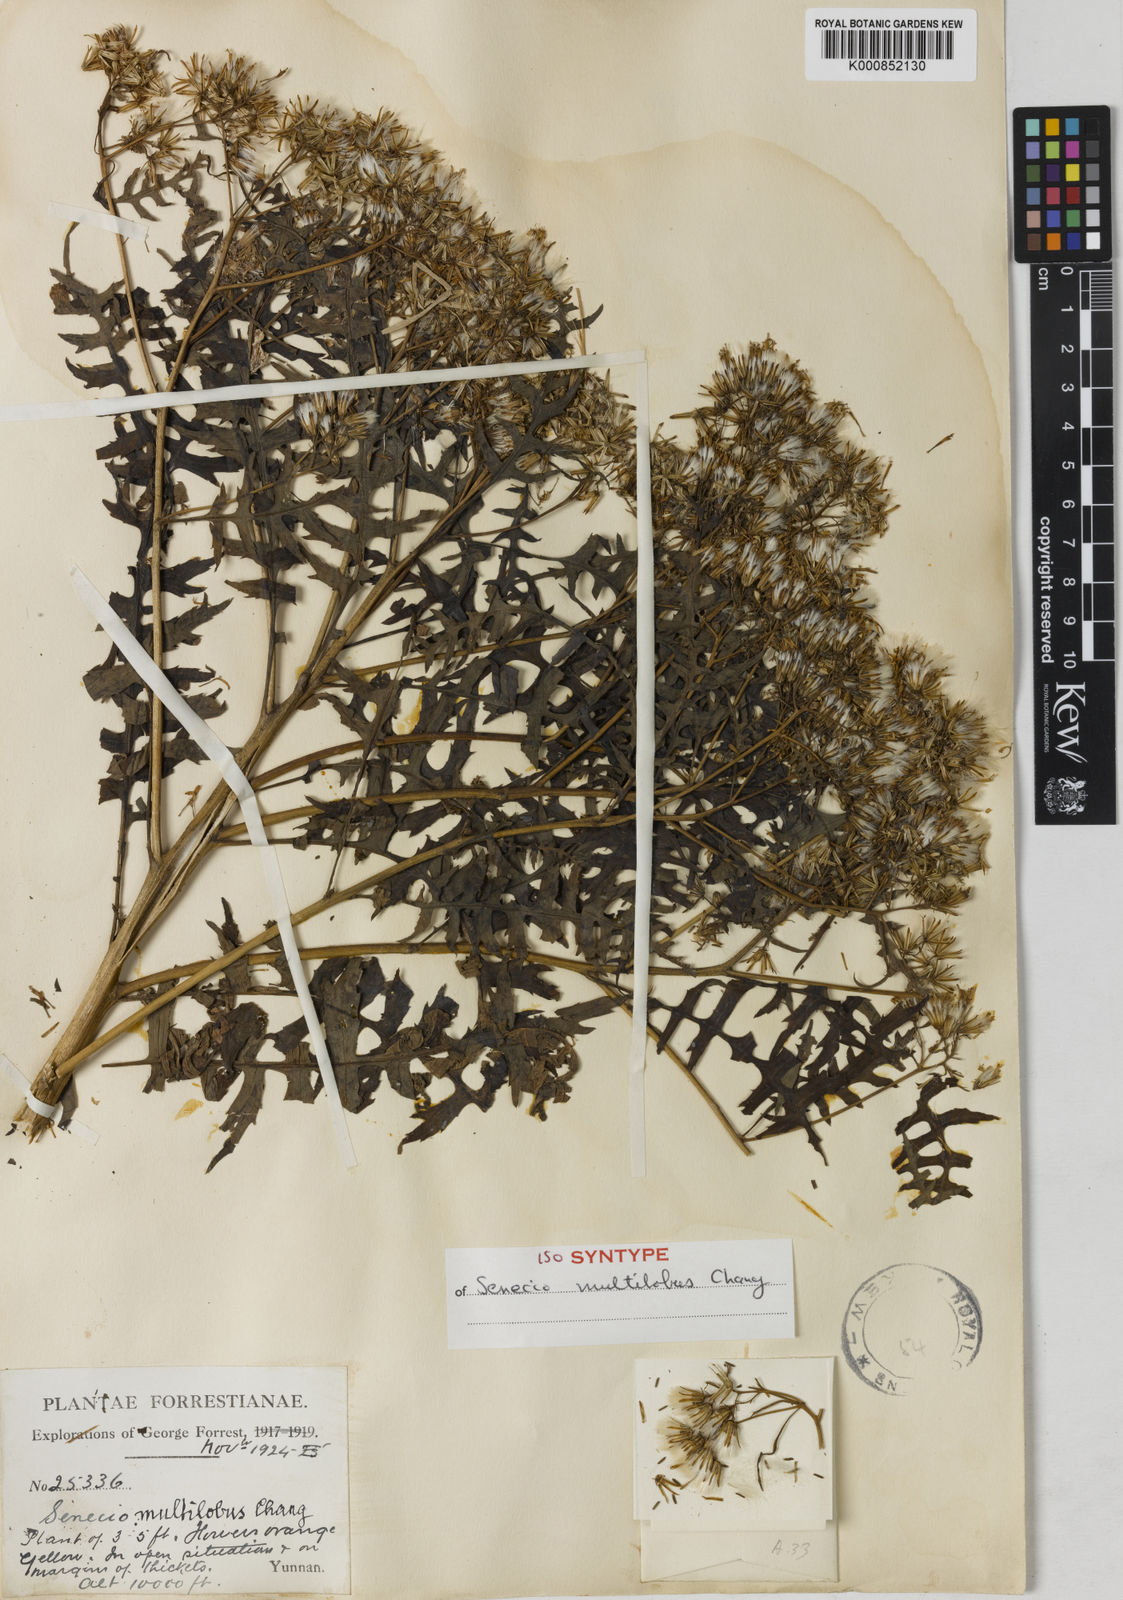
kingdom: Plantae
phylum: Tracheophyta
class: Magnoliopsida
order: Asterales
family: Asteraceae
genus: Senecio
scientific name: Senecio multilobus
